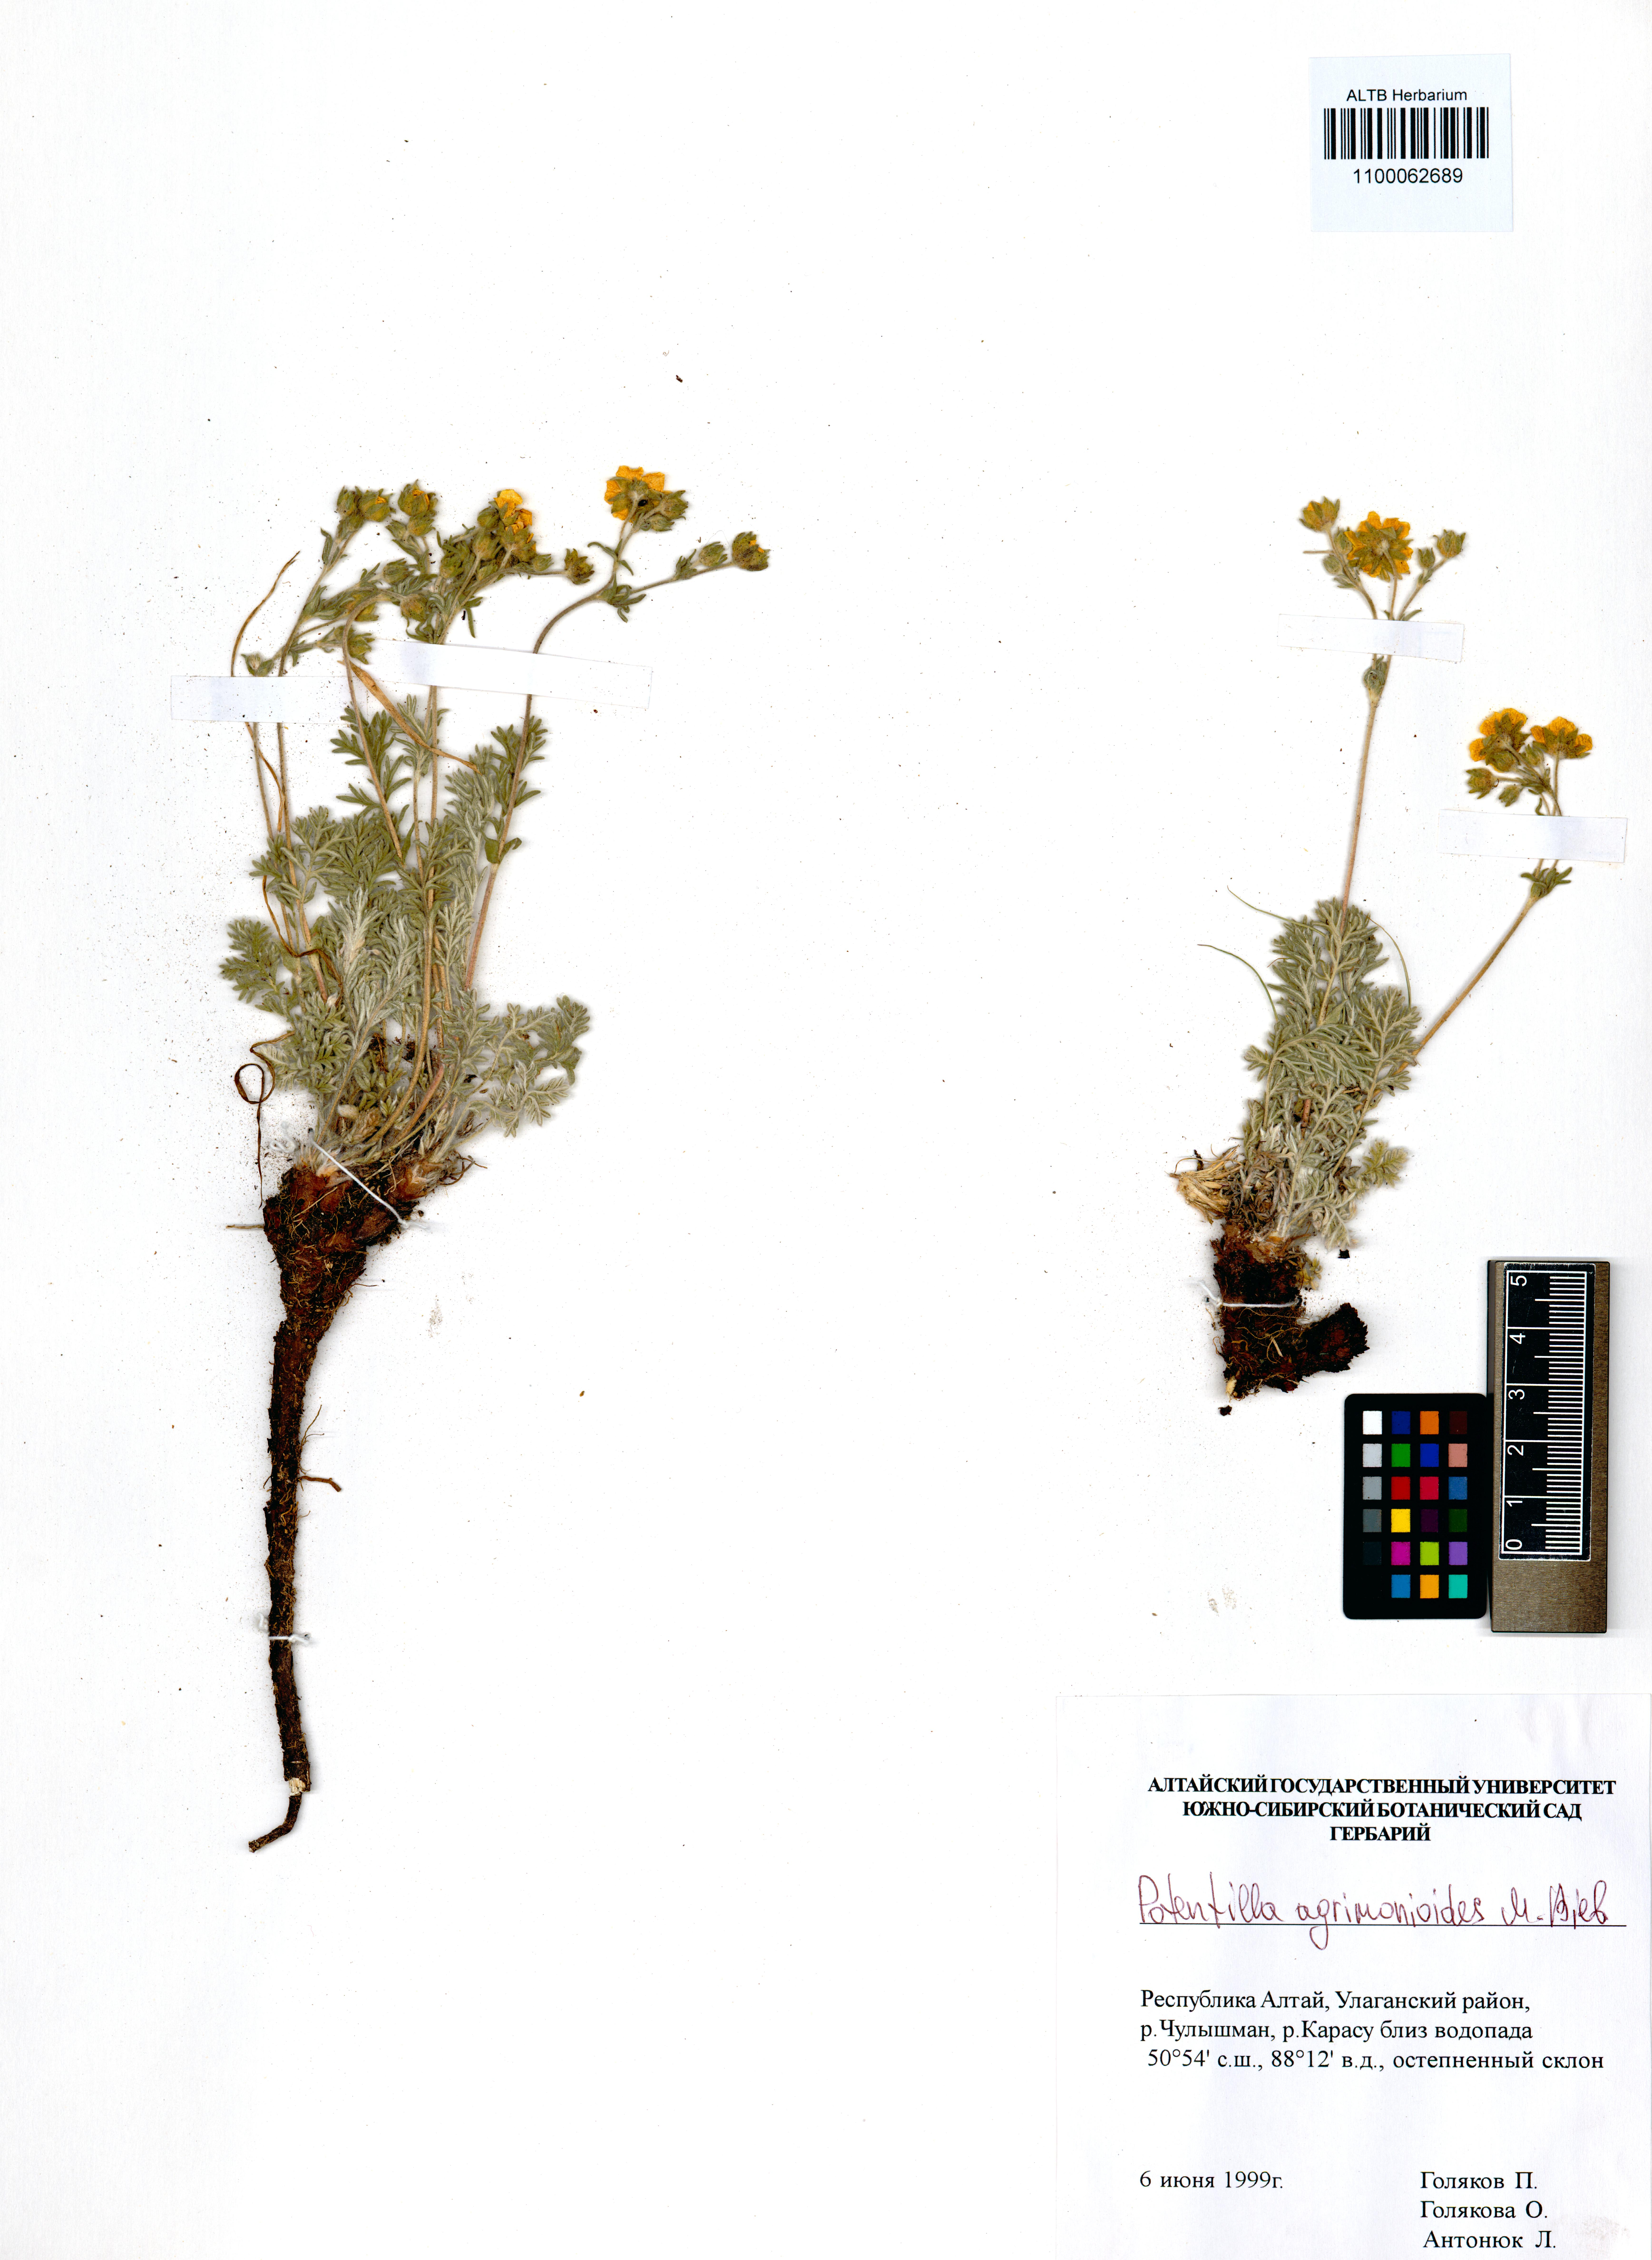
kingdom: Plantae
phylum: Tracheophyta
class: Magnoliopsida
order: Rosales
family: Rosaceae
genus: Potentilla
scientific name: Potentilla agrimonioides
